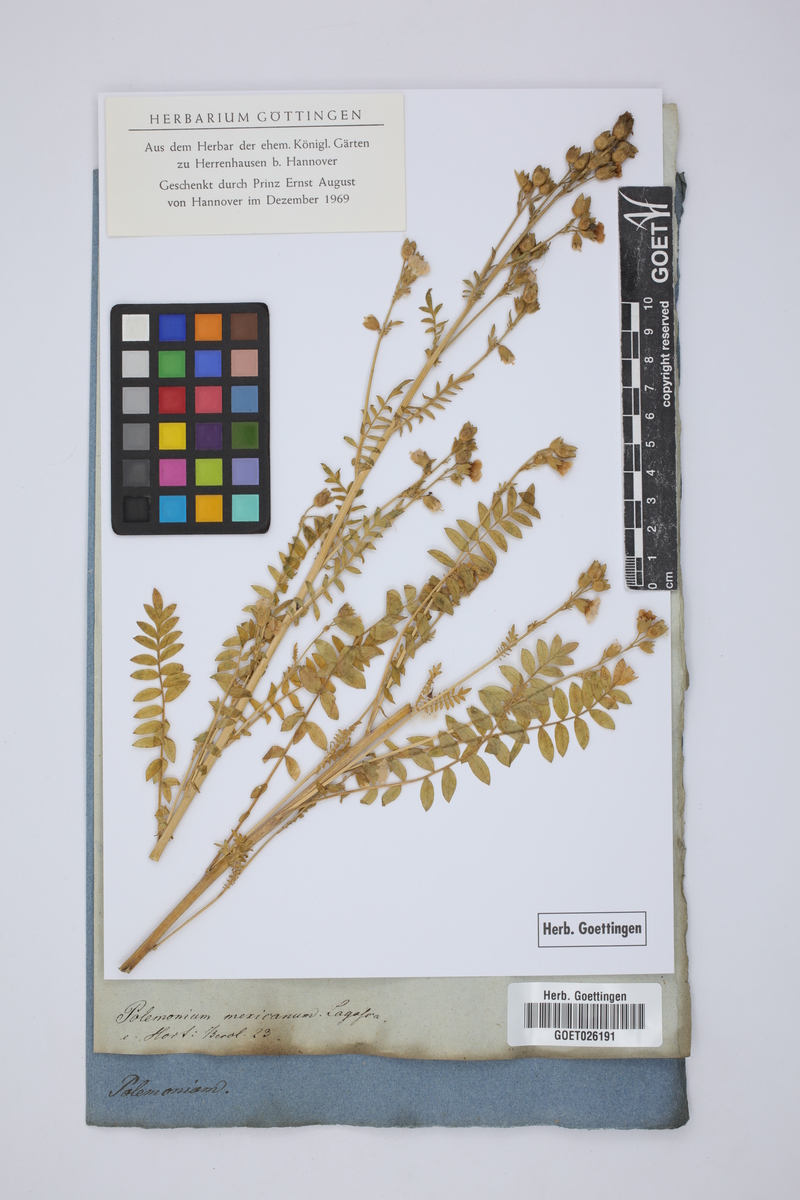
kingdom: Plantae
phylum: Tracheophyta
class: Magnoliopsida
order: Ericales
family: Polemoniaceae
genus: Polemonium
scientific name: Polemonium foliosissimum
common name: Leafy jacob's-ladder
